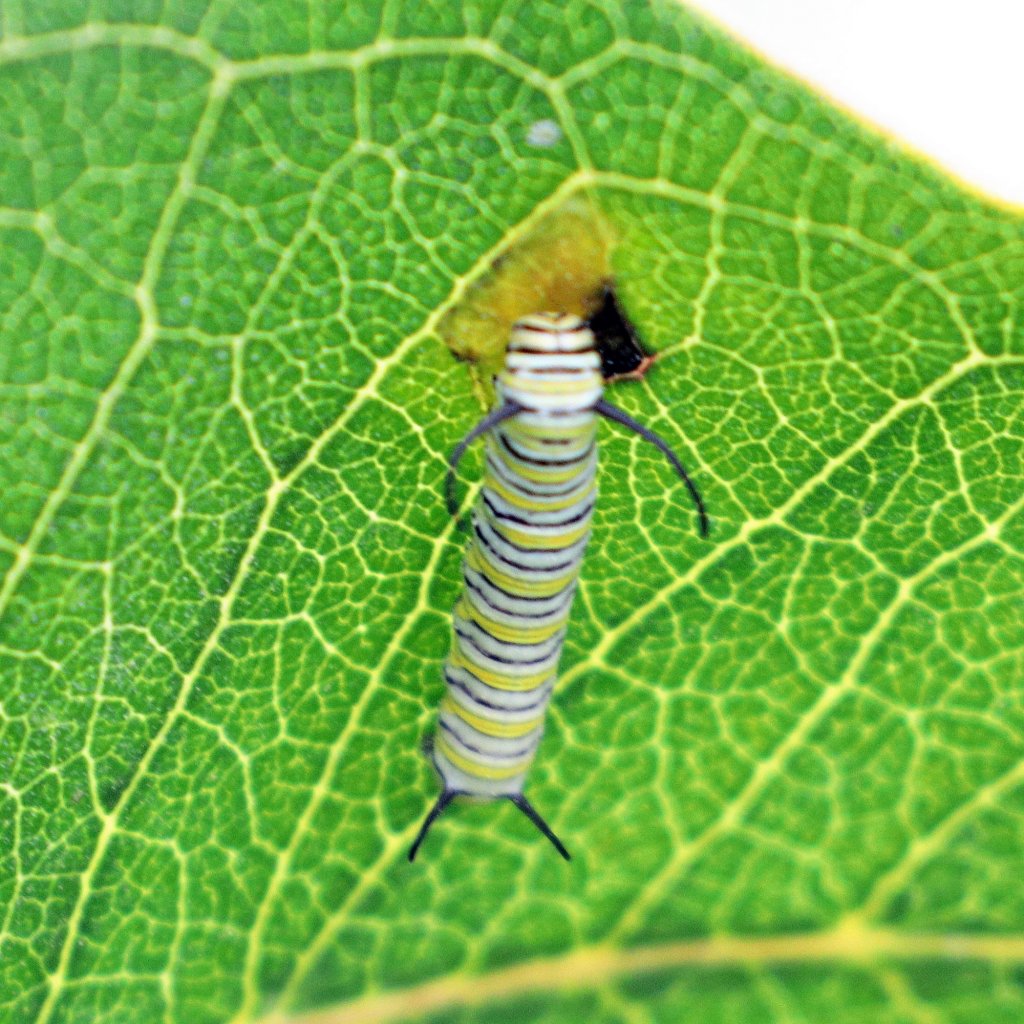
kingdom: Animalia
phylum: Arthropoda
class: Insecta
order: Lepidoptera
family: Nymphalidae
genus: Danaus
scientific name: Danaus plexippus
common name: Monarch
